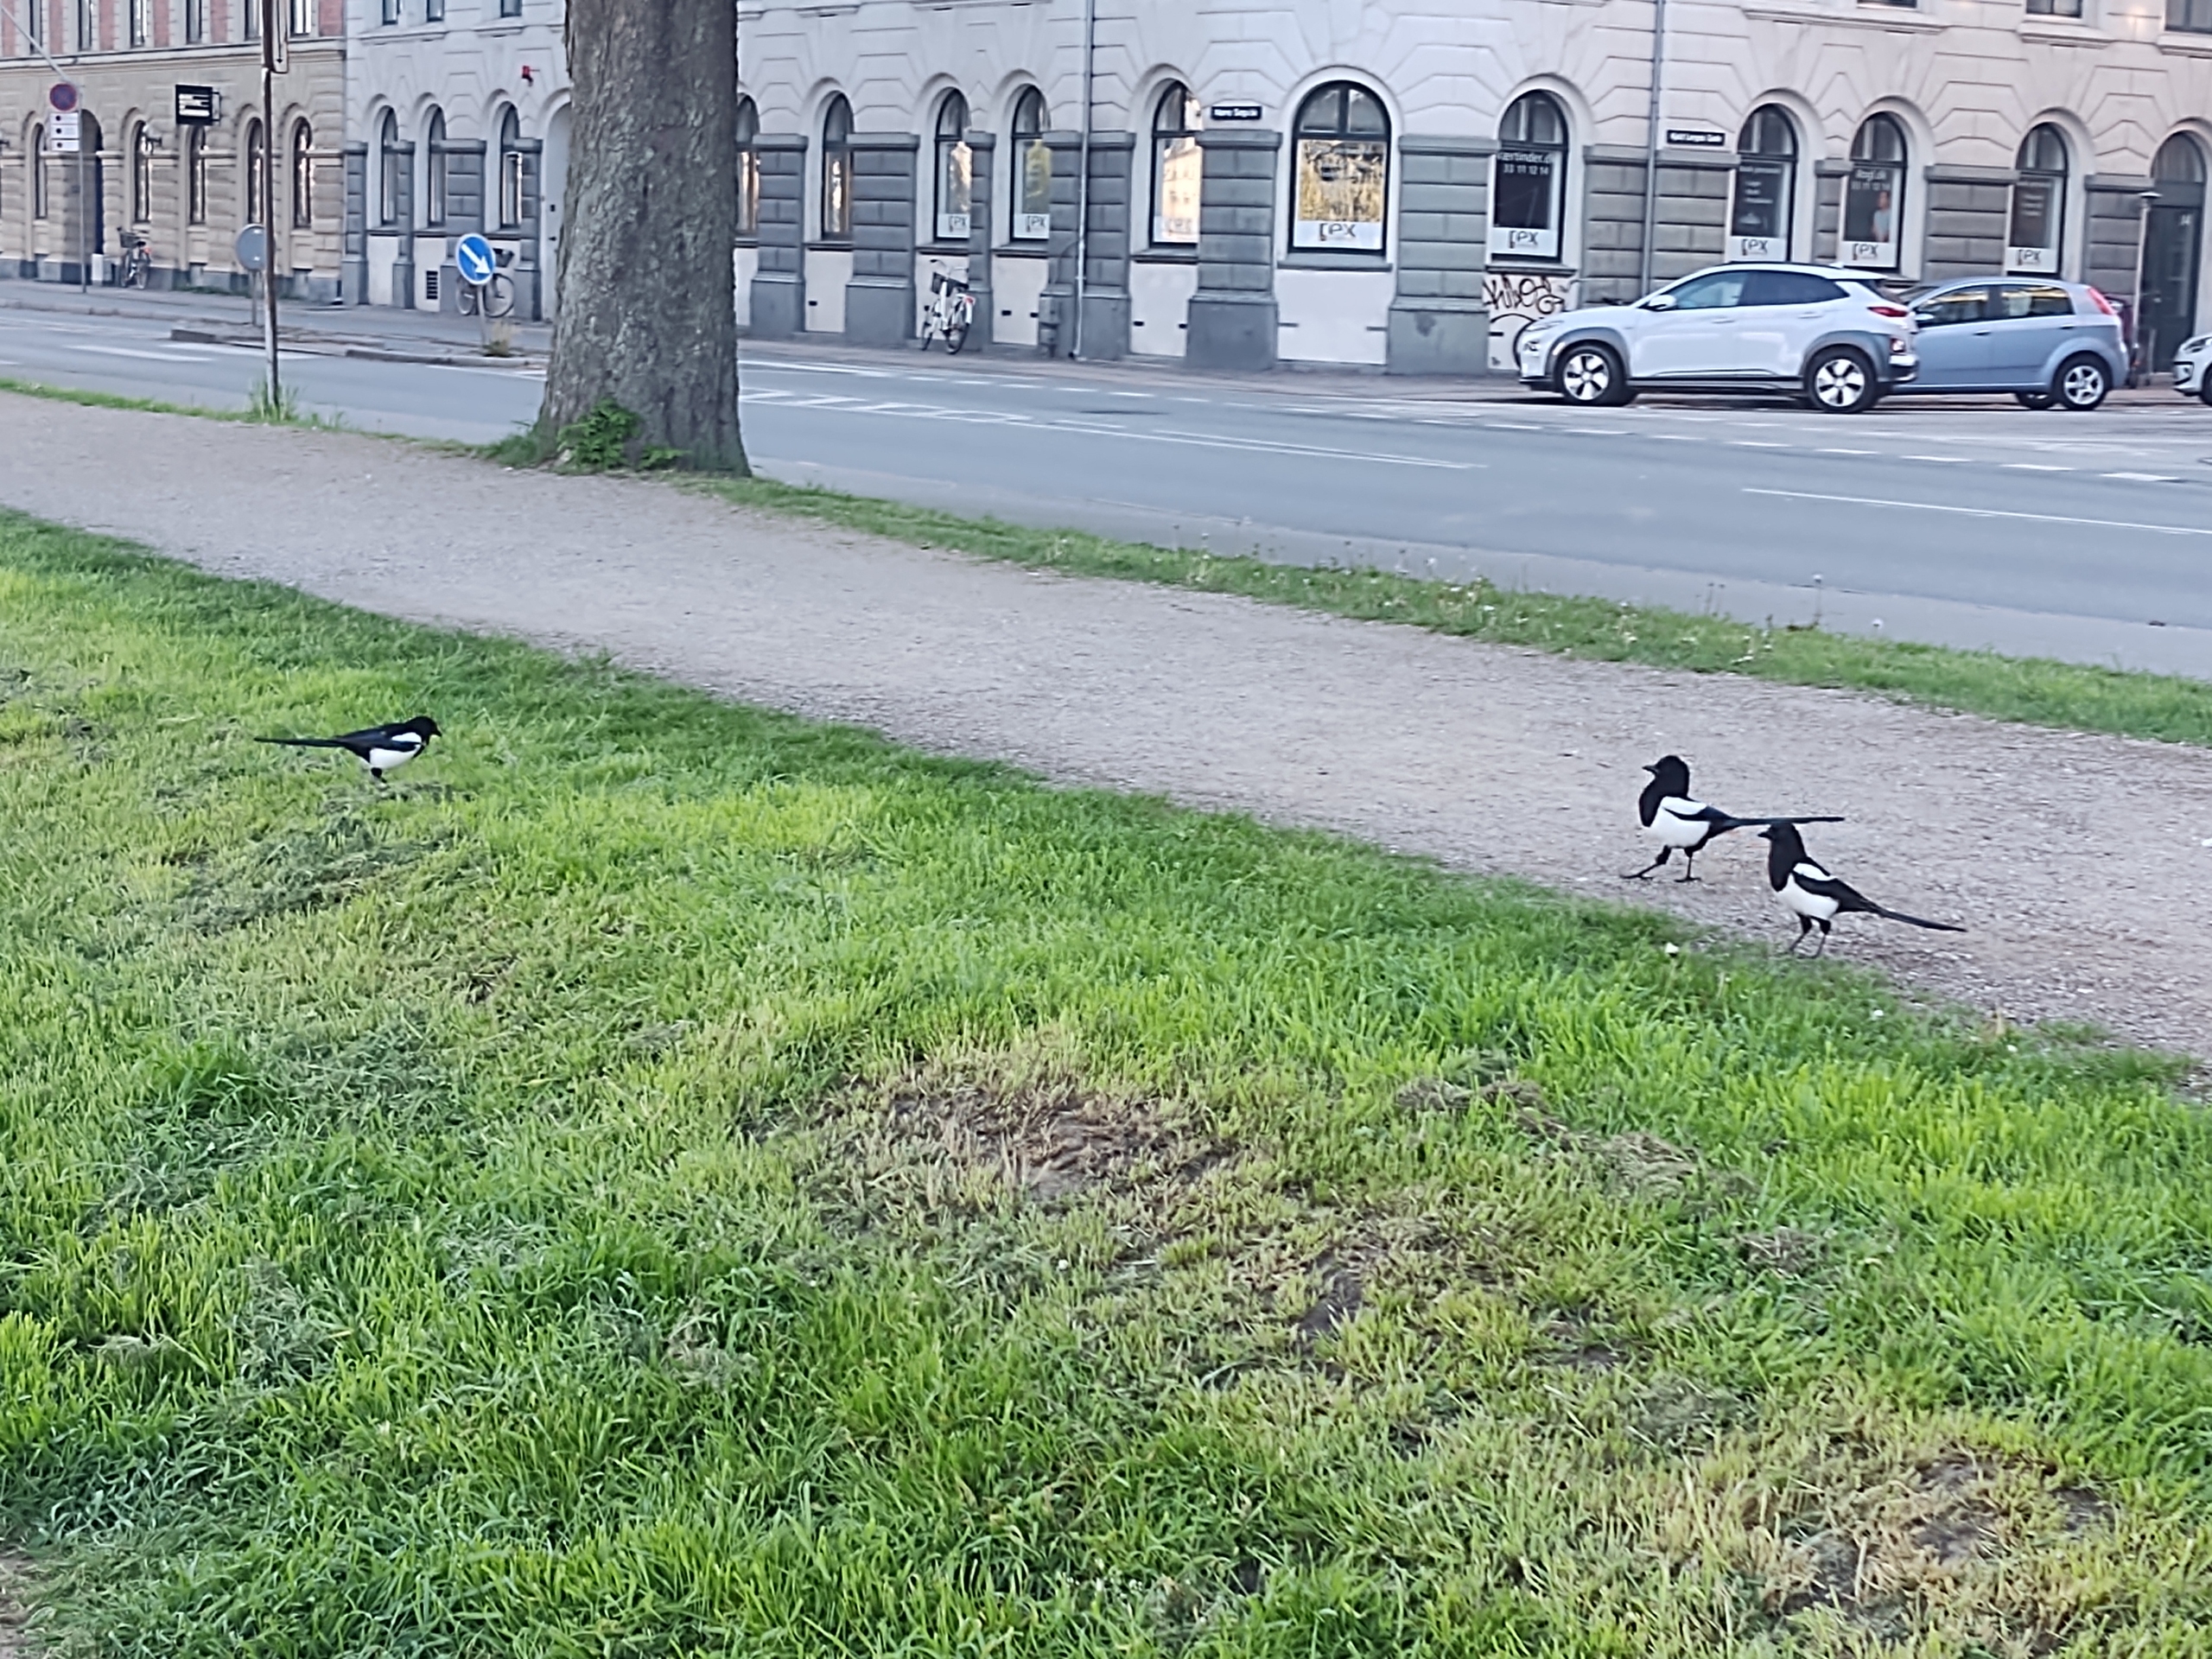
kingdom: Animalia
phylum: Chordata
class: Aves
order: Passeriformes
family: Corvidae
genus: Pica
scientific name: Pica pica
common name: Husskade
